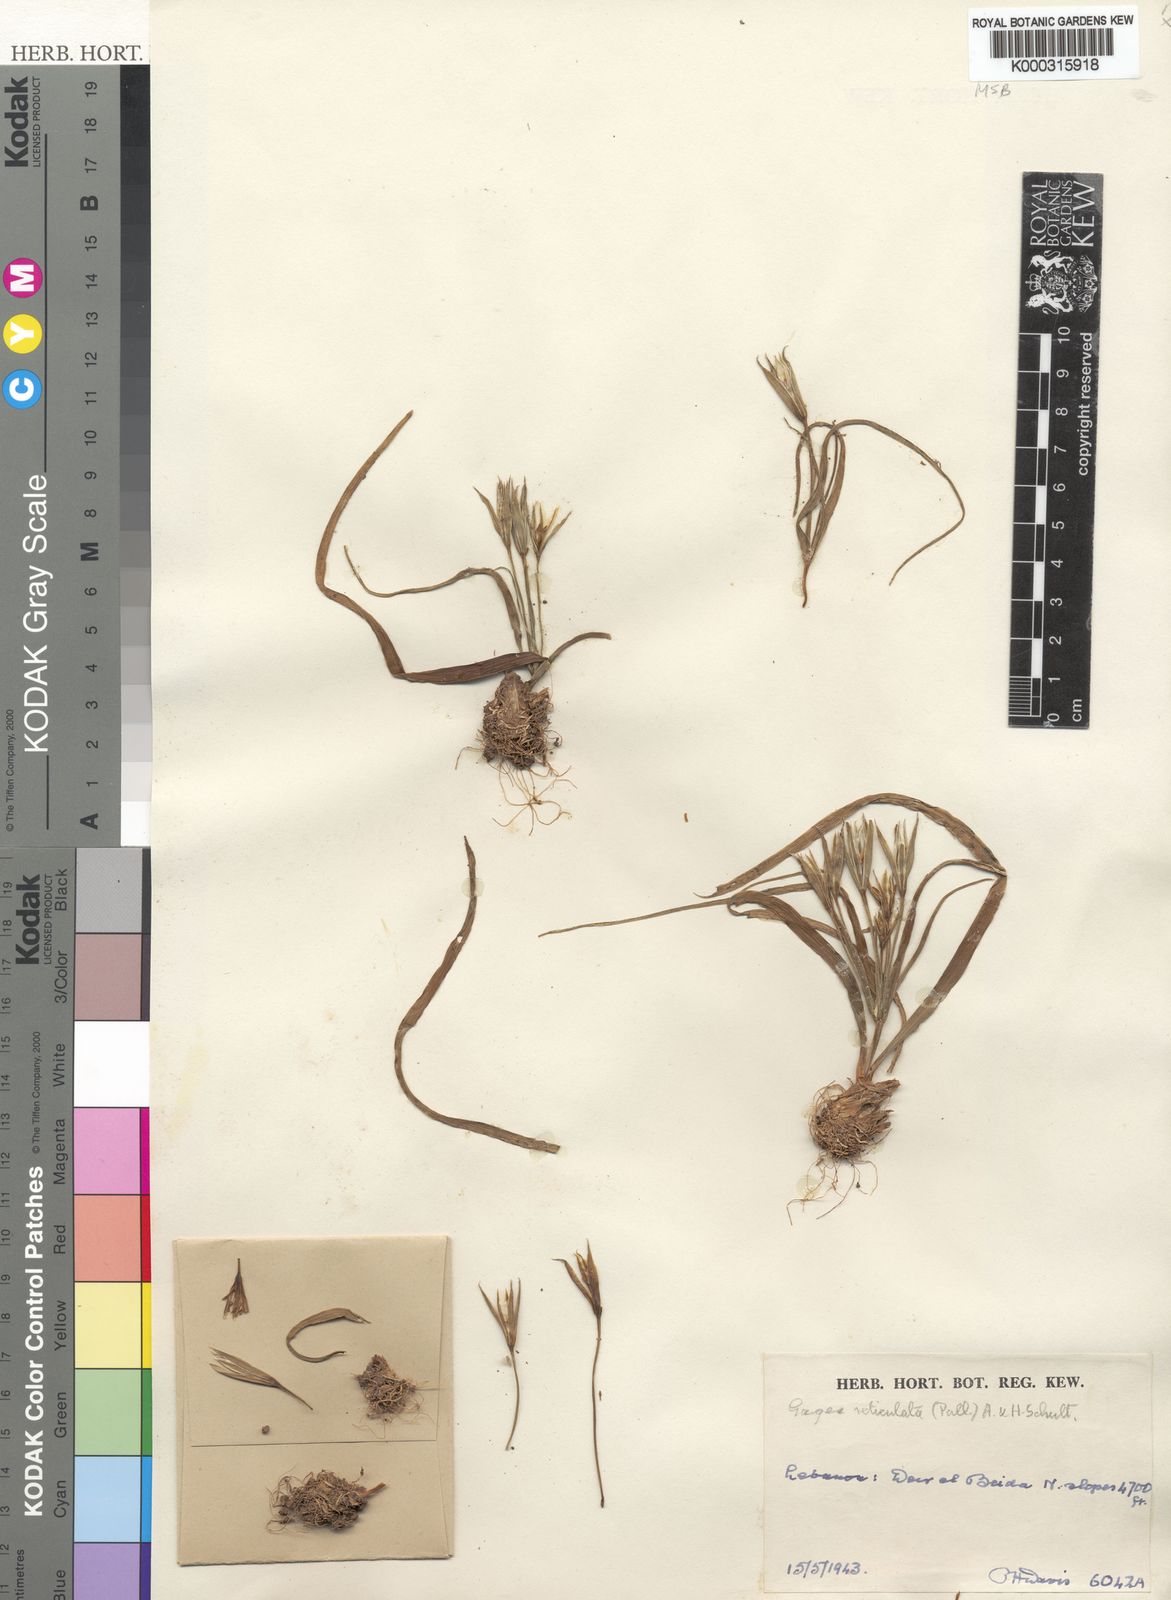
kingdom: Plantae
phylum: Tracheophyta
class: Liliopsida
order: Liliales
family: Liliaceae
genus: Gagea
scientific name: Gagea reticulata
